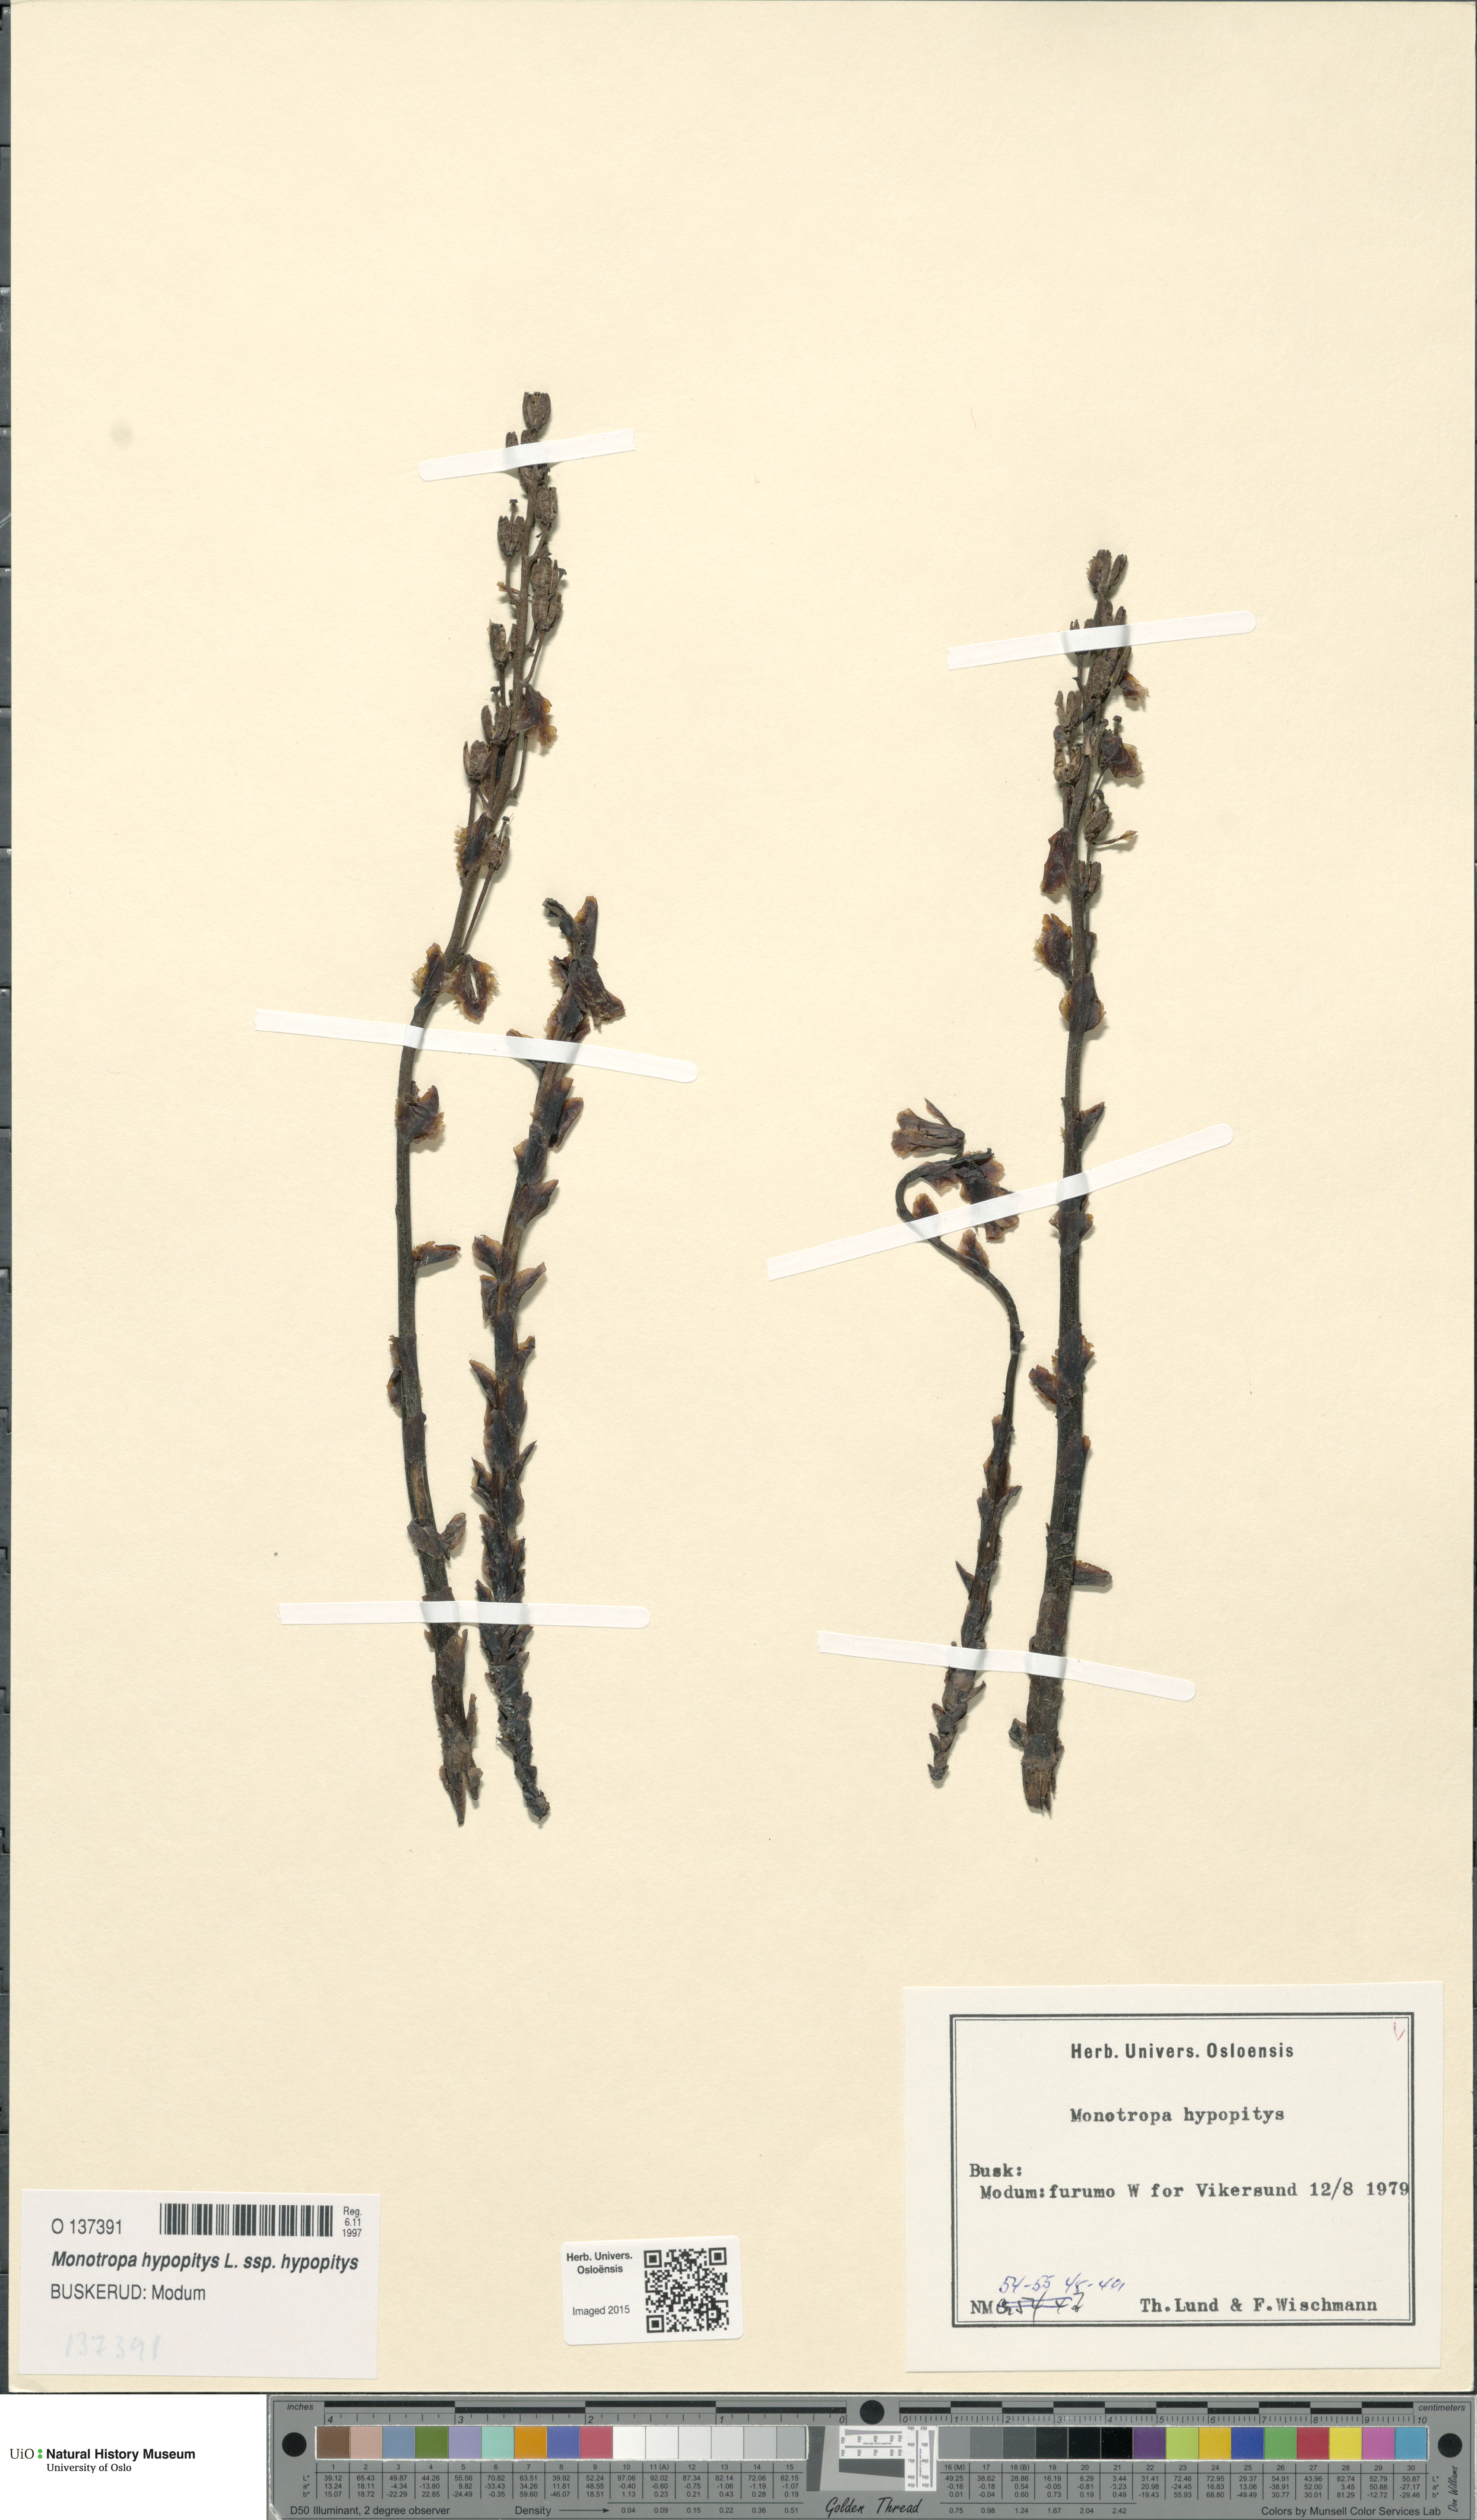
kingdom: Plantae
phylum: Tracheophyta
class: Magnoliopsida
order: Ericales
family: Ericaceae
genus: Hypopitys
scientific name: Hypopitys monotropa
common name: Yellow bird's-nest
